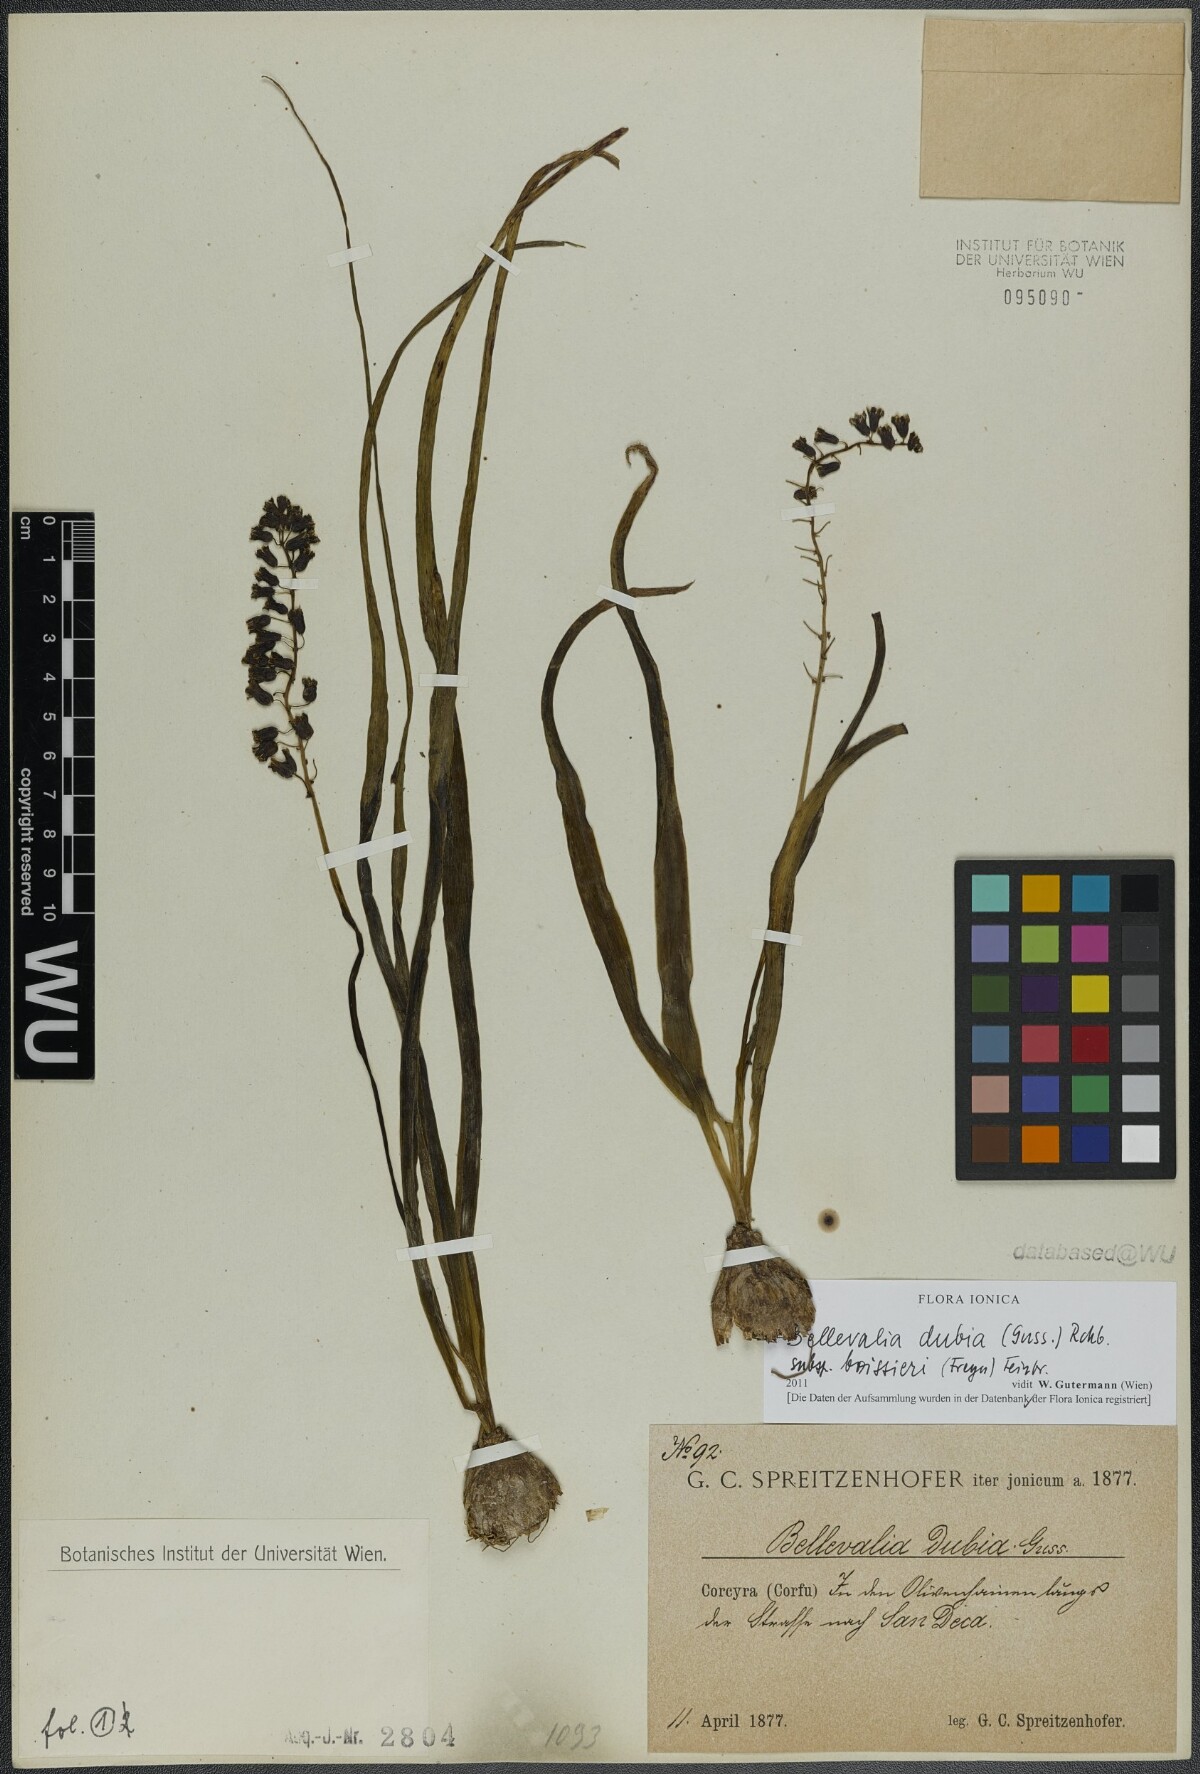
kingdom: Plantae
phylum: Tracheophyta
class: Liliopsida
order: Asparagales
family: Asparagaceae
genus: Bellevalia
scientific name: Bellevalia dubia
